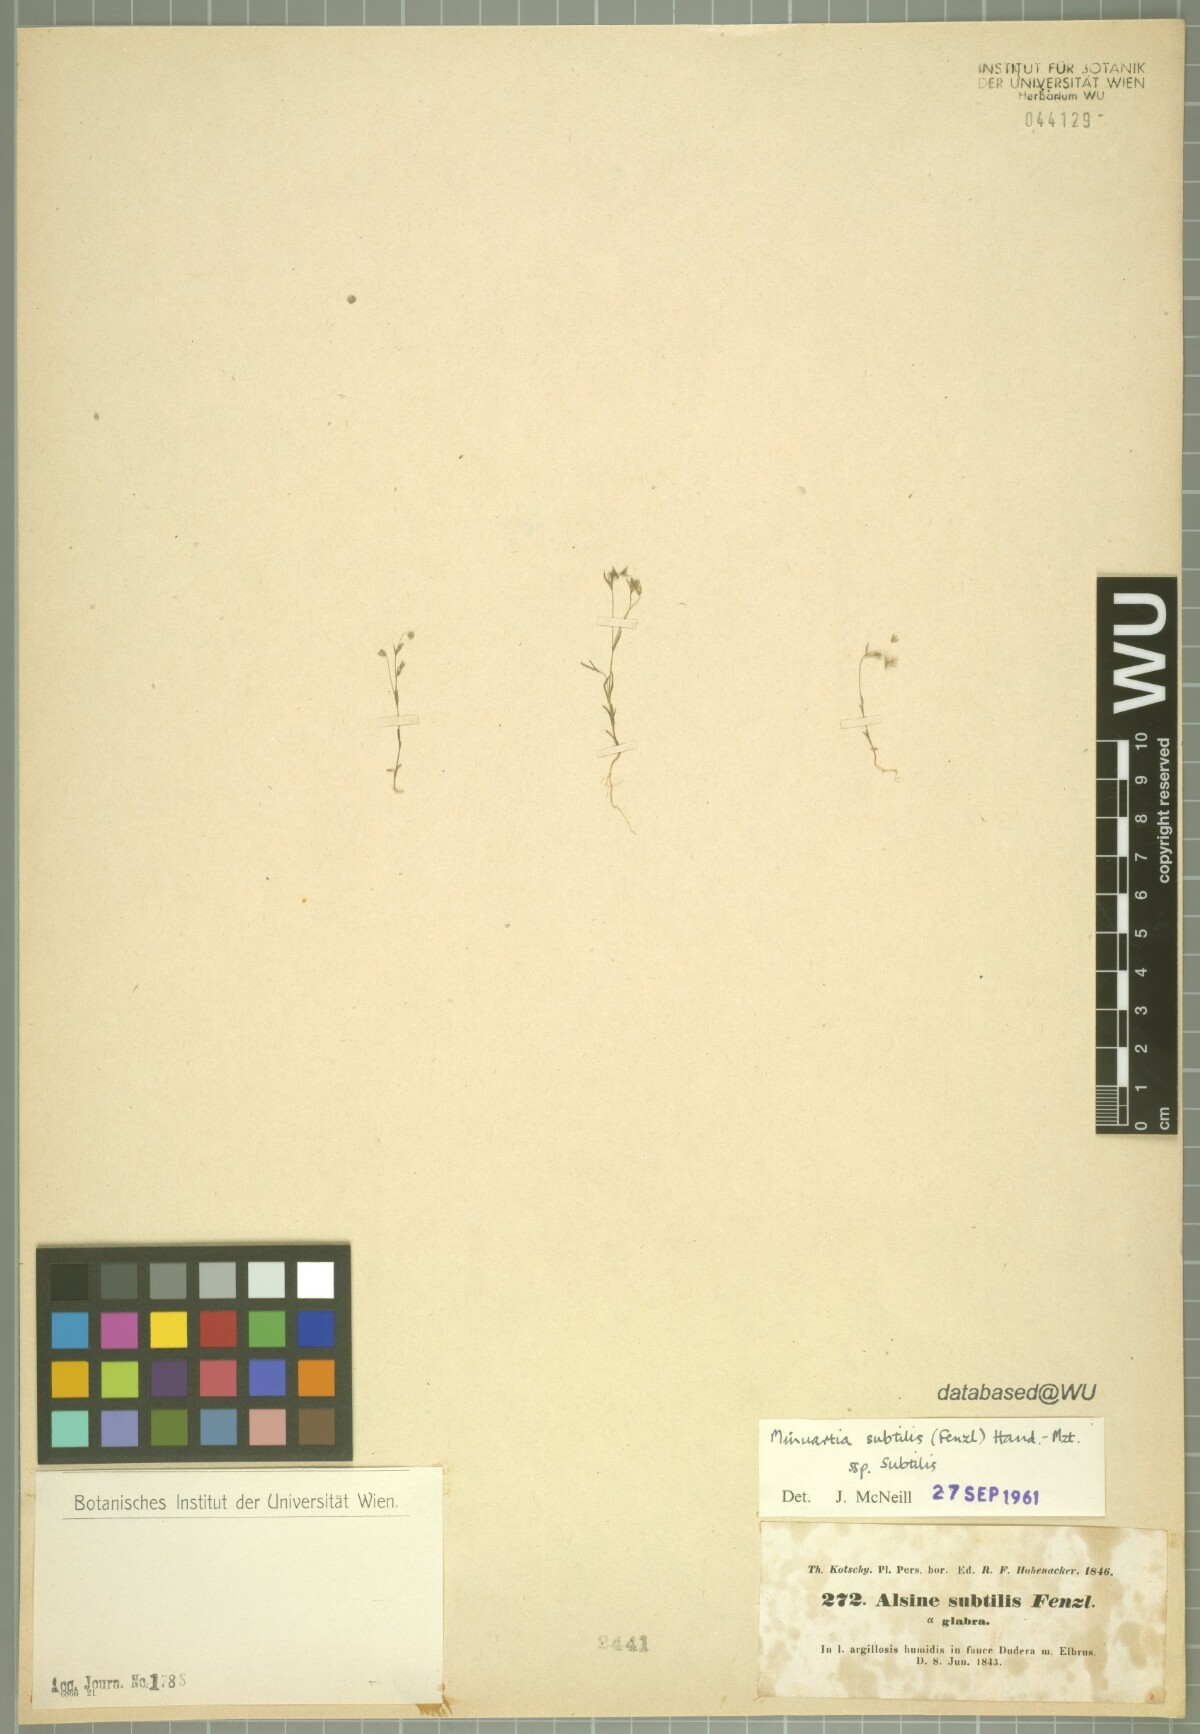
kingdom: Plantae
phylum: Tracheophyta
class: Magnoliopsida
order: Caryophyllales
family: Caryophyllaceae
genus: Sabulina
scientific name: Sabulina subtilis
